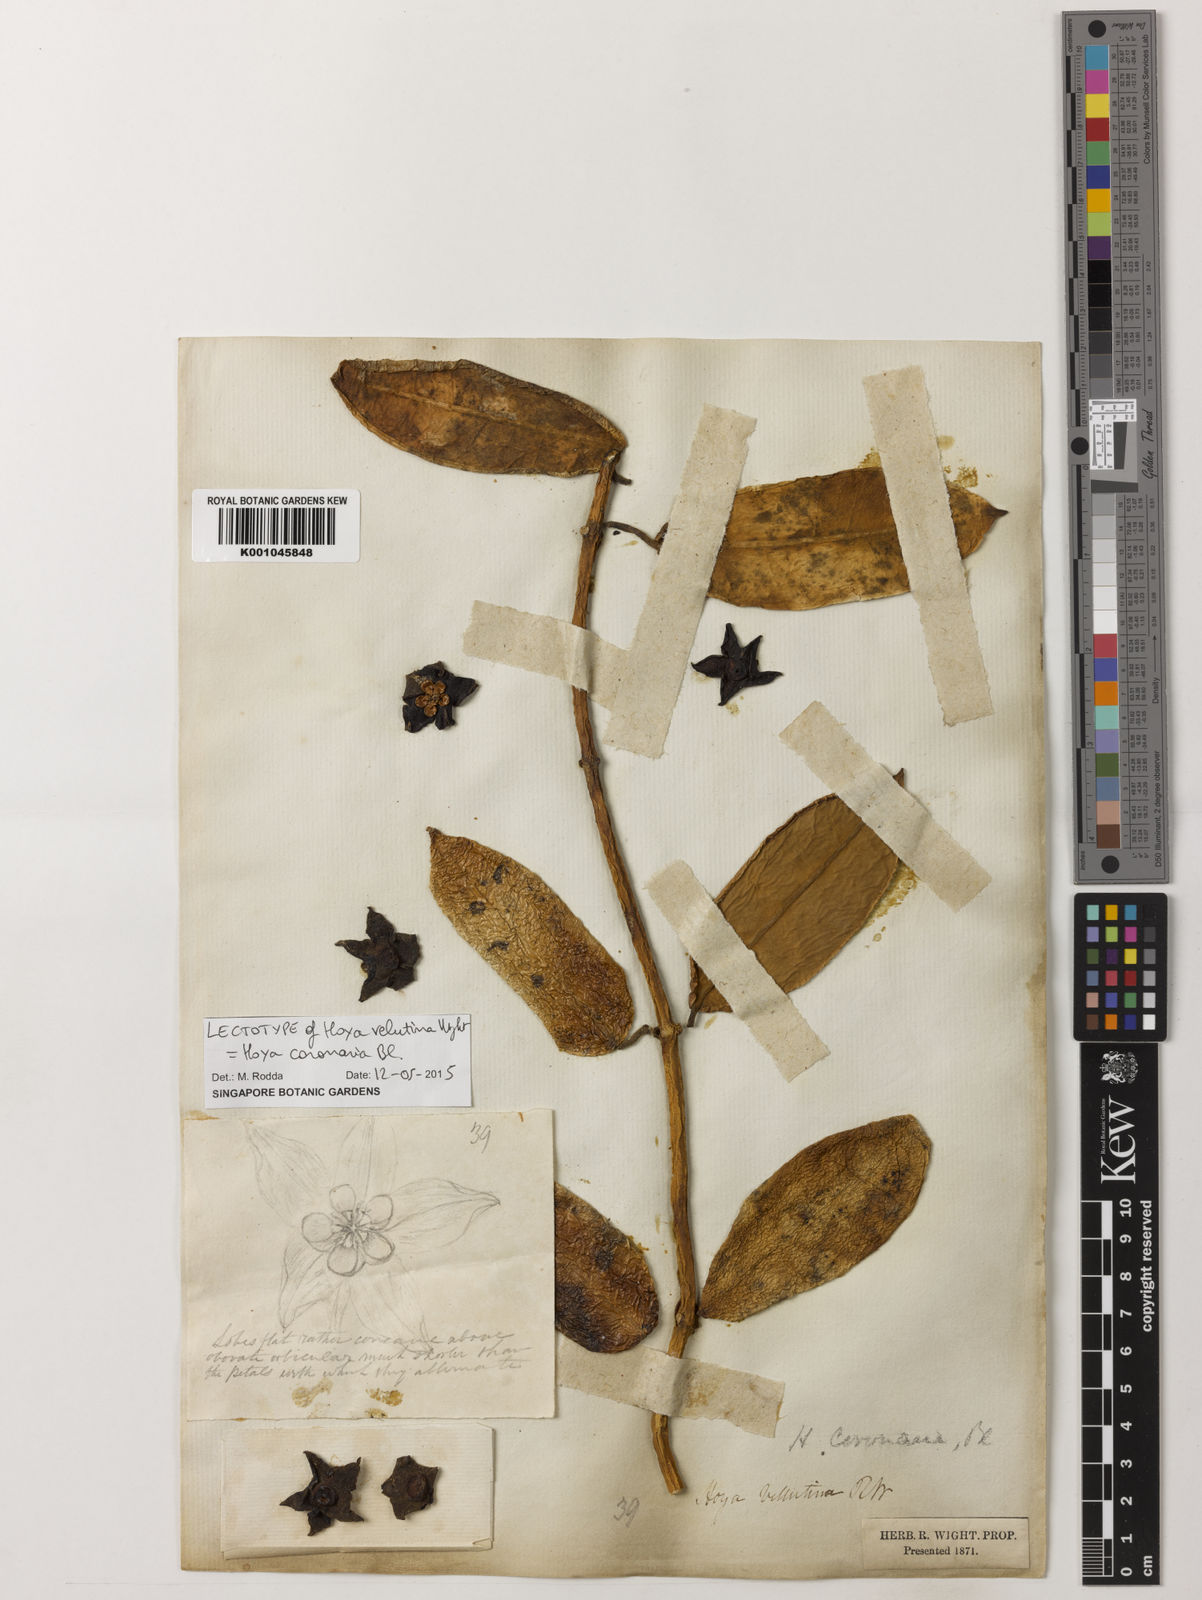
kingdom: Plantae
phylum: Tracheophyta
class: Magnoliopsida
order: Gentianales
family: Apocynaceae
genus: Eriostemma
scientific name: Eriostemma coronaria
